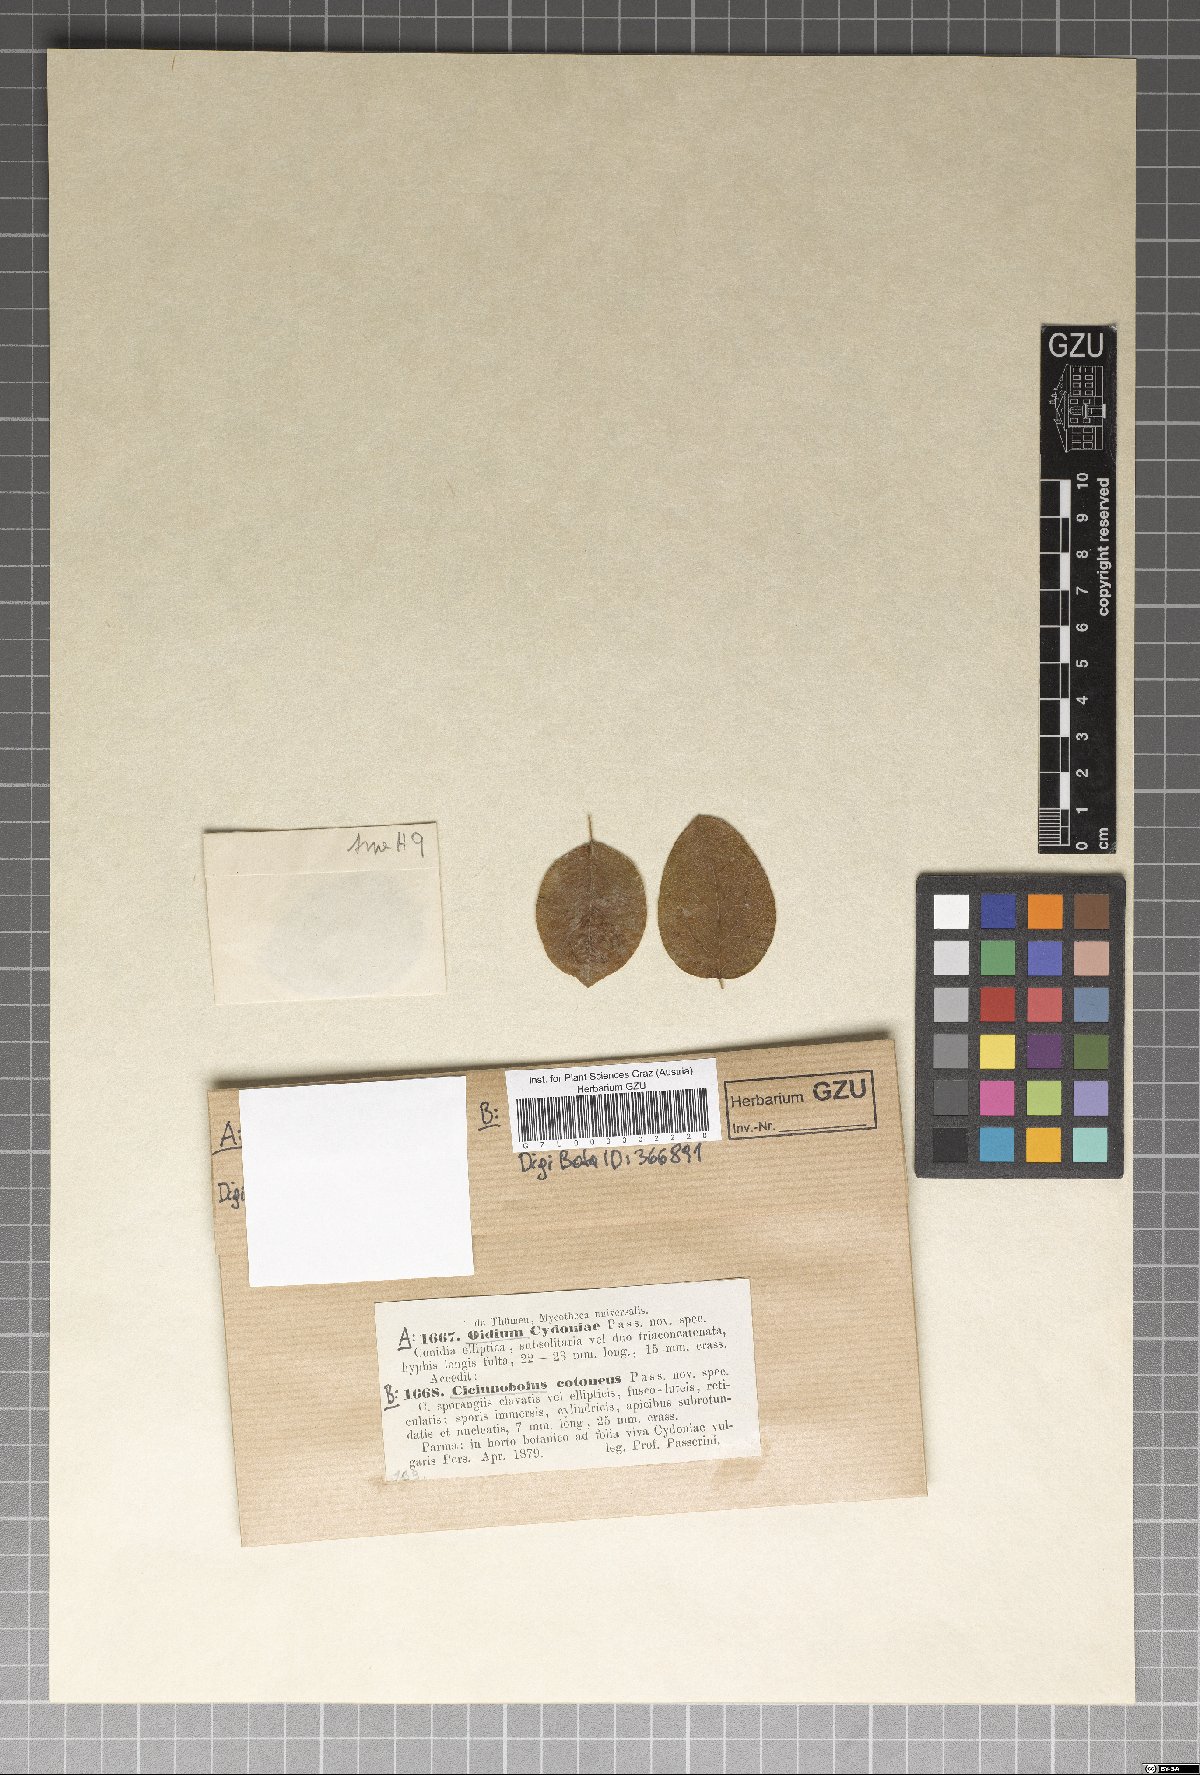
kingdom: Fungi
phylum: Ascomycota
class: Dothideomycetes
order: Pleosporales
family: Phaeosphaeriaceae
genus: Cicinobolus
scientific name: Cicinobolus
